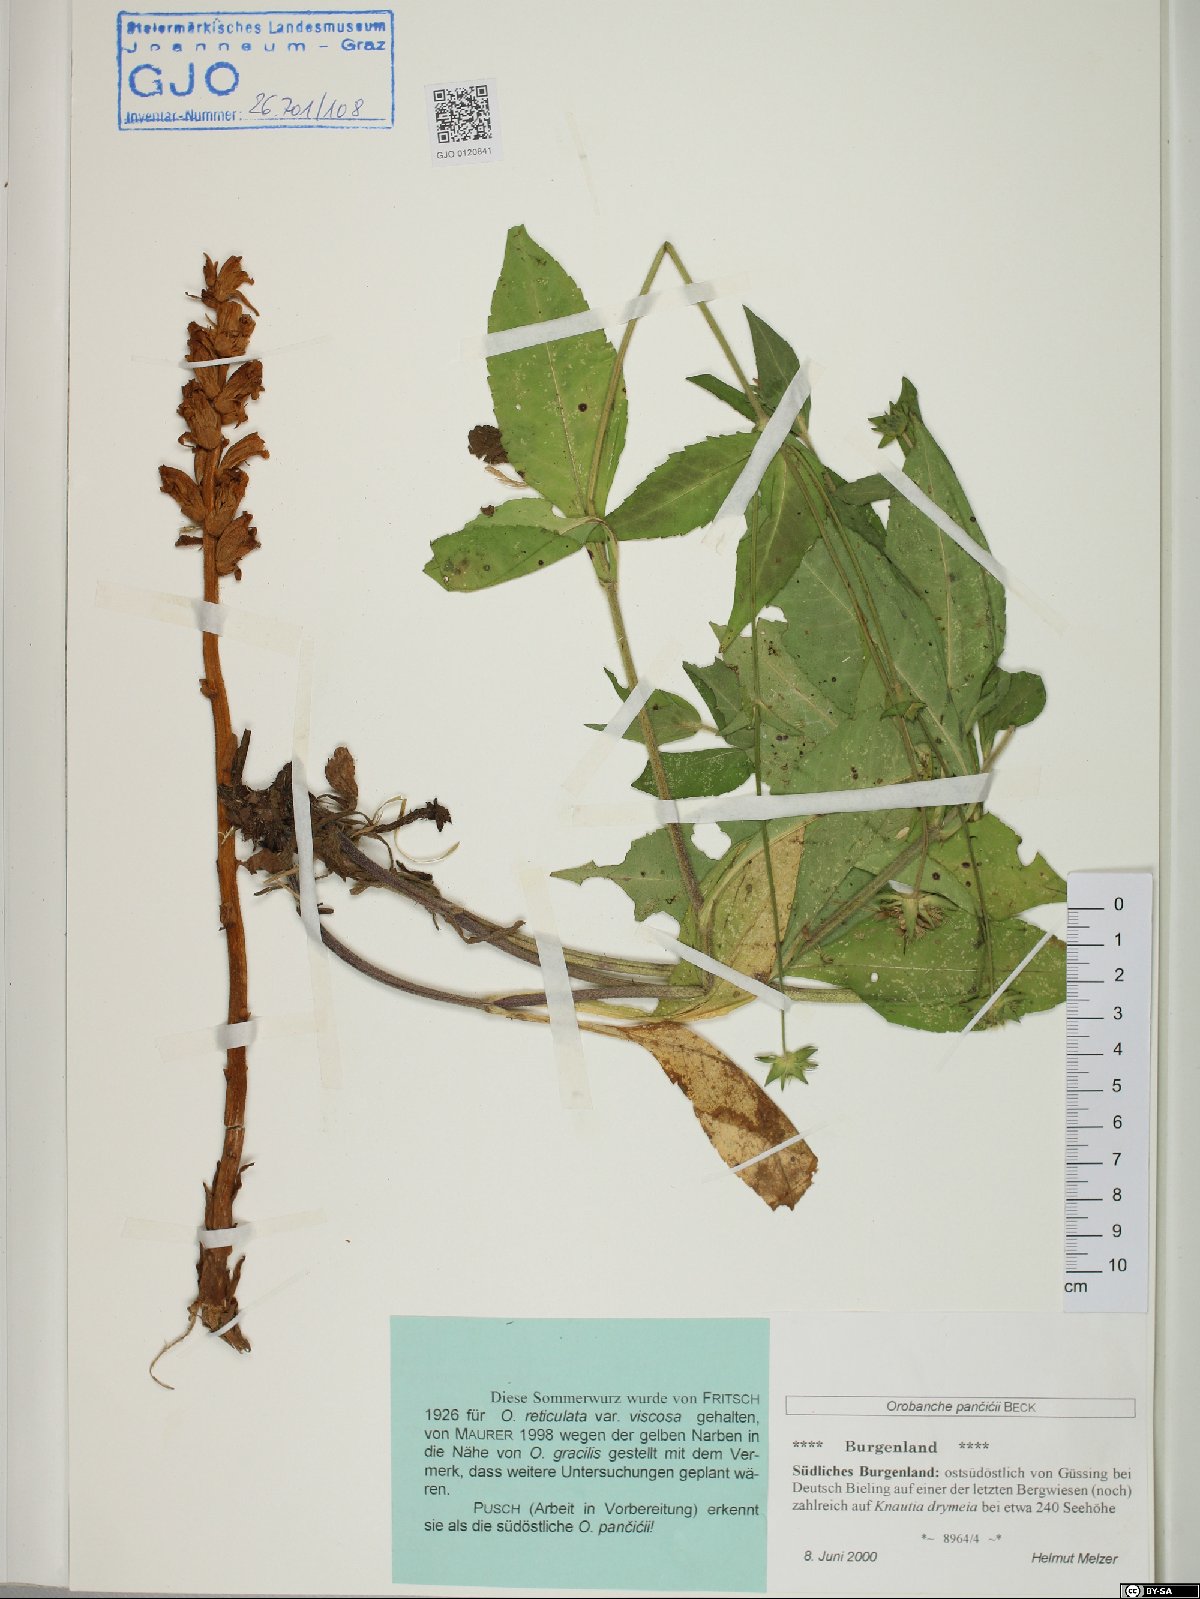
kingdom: Plantae
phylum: Tracheophyta
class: Magnoliopsida
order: Lamiales
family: Orobanchaceae
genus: Orobanche
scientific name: Orobanche pancicii
